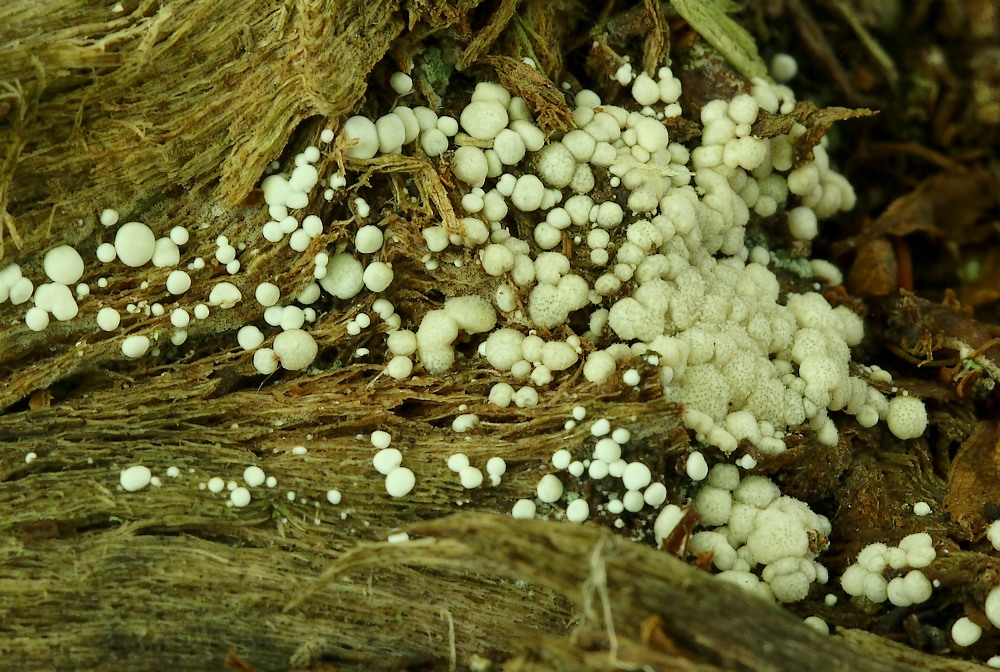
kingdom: Fungi
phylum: Ascomycota
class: Sordariomycetes
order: Hypocreales
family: Hypocreaceae
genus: Trichoderma
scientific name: Trichoderma strictipile
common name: grønprikket kødkerne
